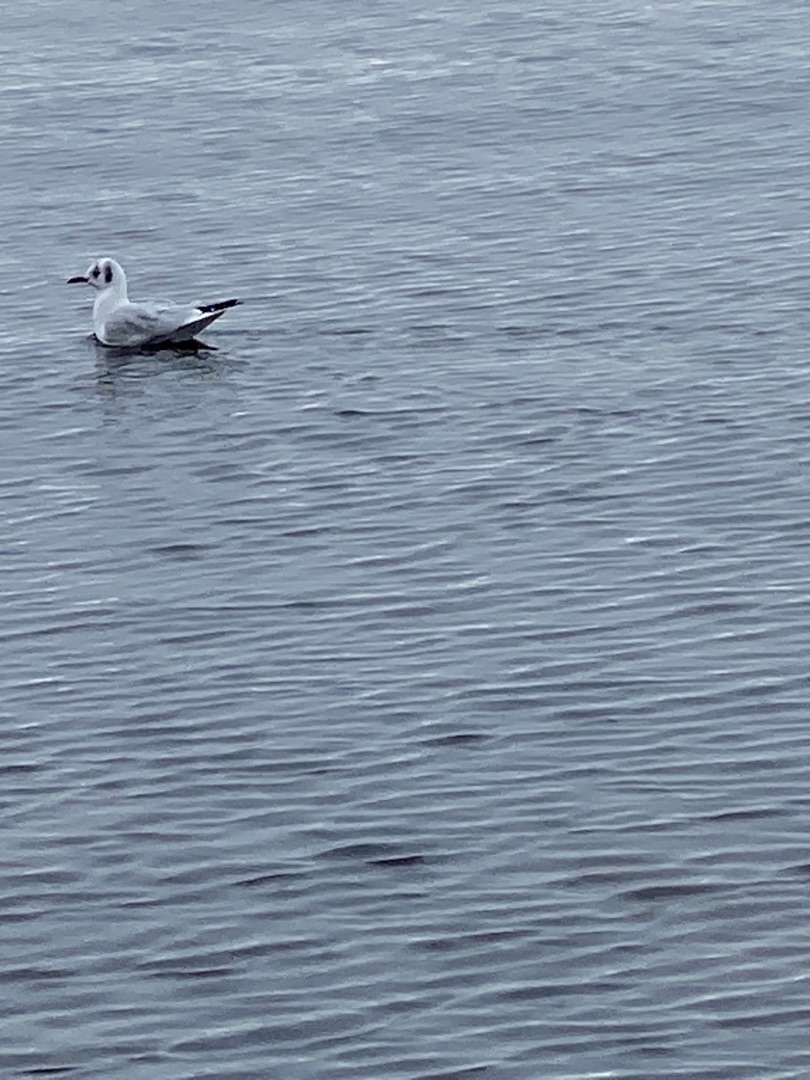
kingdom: Animalia
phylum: Chordata
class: Aves
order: Charadriiformes
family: Laridae
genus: Chroicocephalus
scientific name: Chroicocephalus ridibundus
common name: Hættemåge
